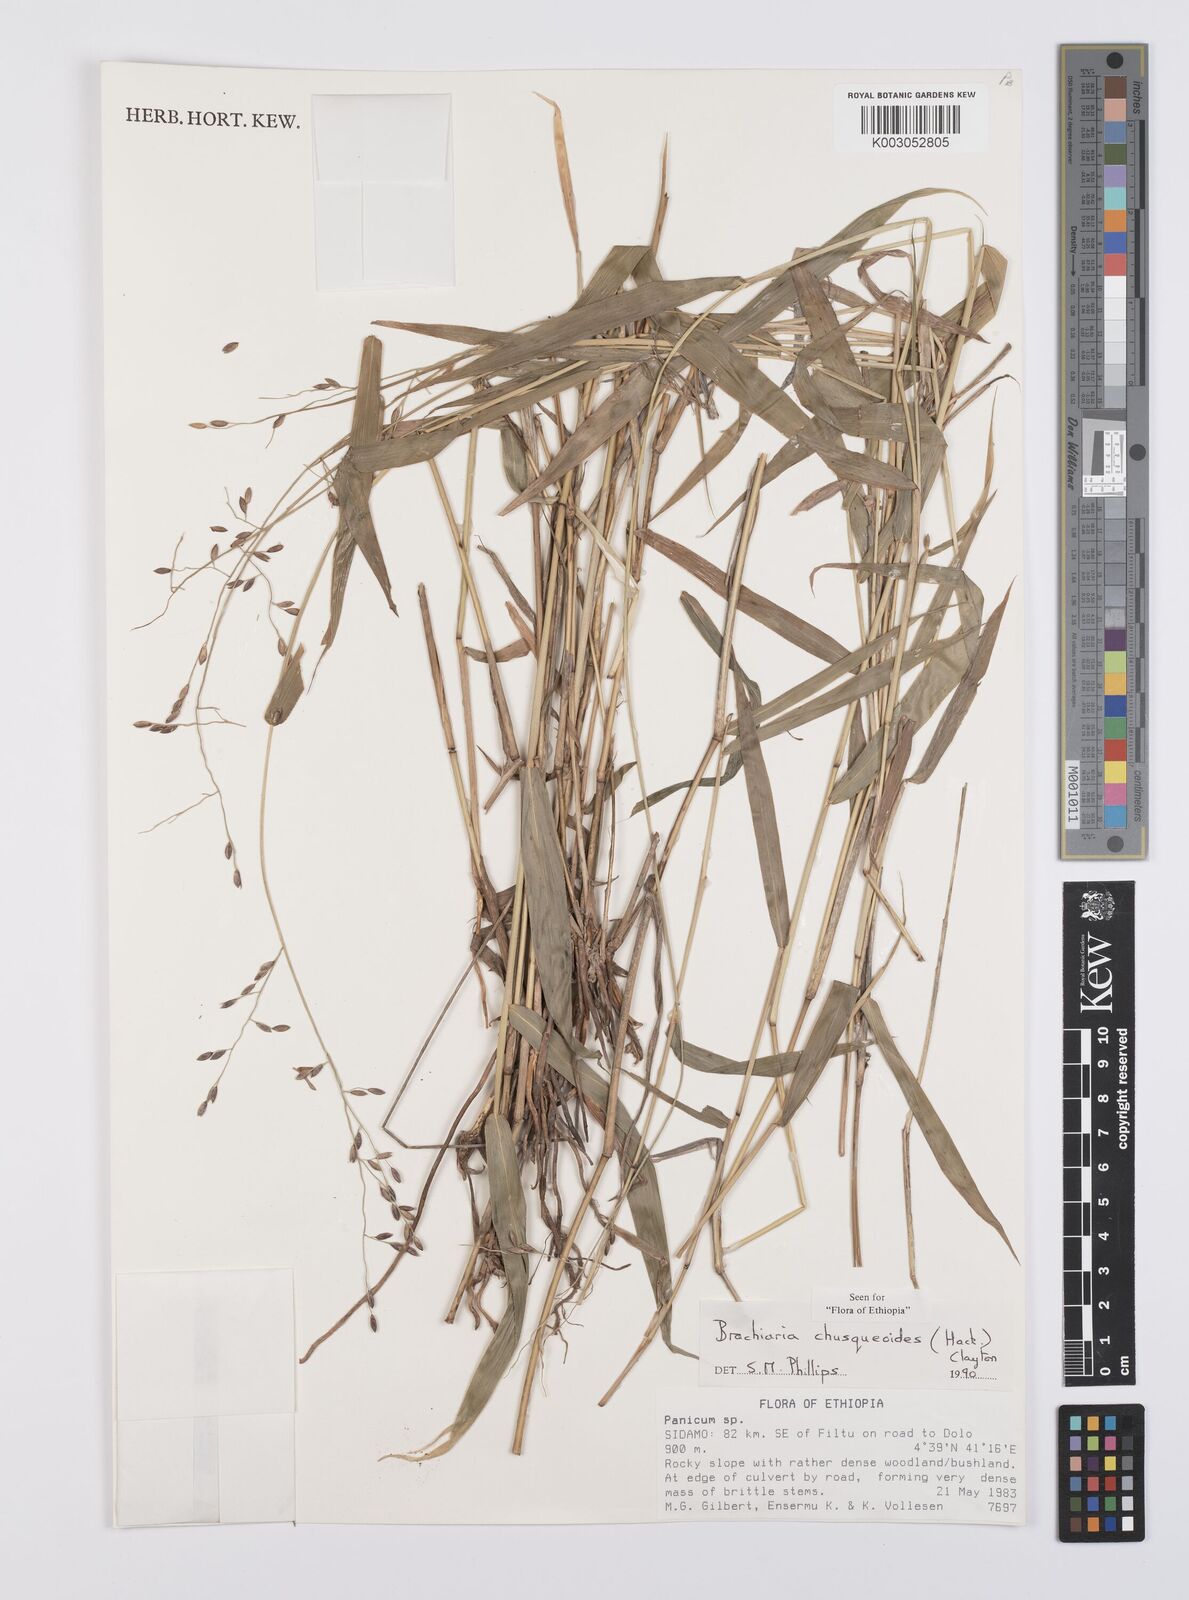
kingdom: Plantae
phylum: Tracheophyta
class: Liliopsida
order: Poales
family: Poaceae
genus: Urochloa
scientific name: Urochloa chusqueoides
